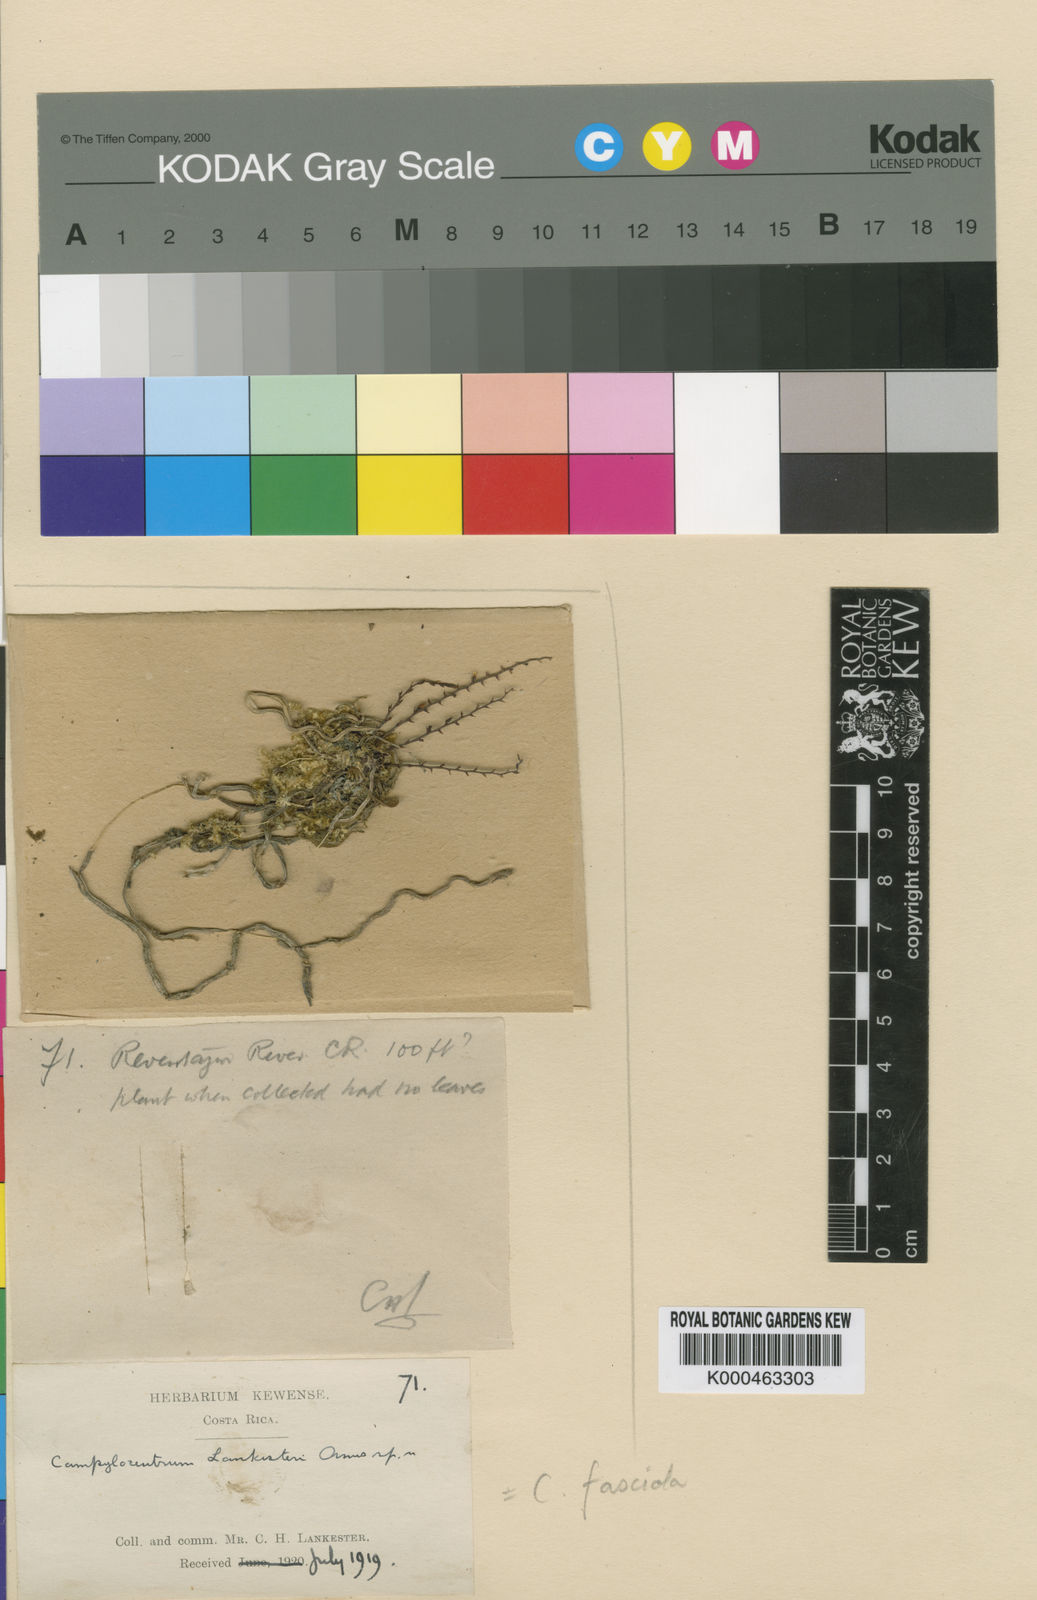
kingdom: Plantae
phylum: Tracheophyta
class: Liliopsida
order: Asparagales
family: Orchidaceae
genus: Campylocentrum
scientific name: Campylocentrum fasciola
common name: Arboreal bentspur orchid
